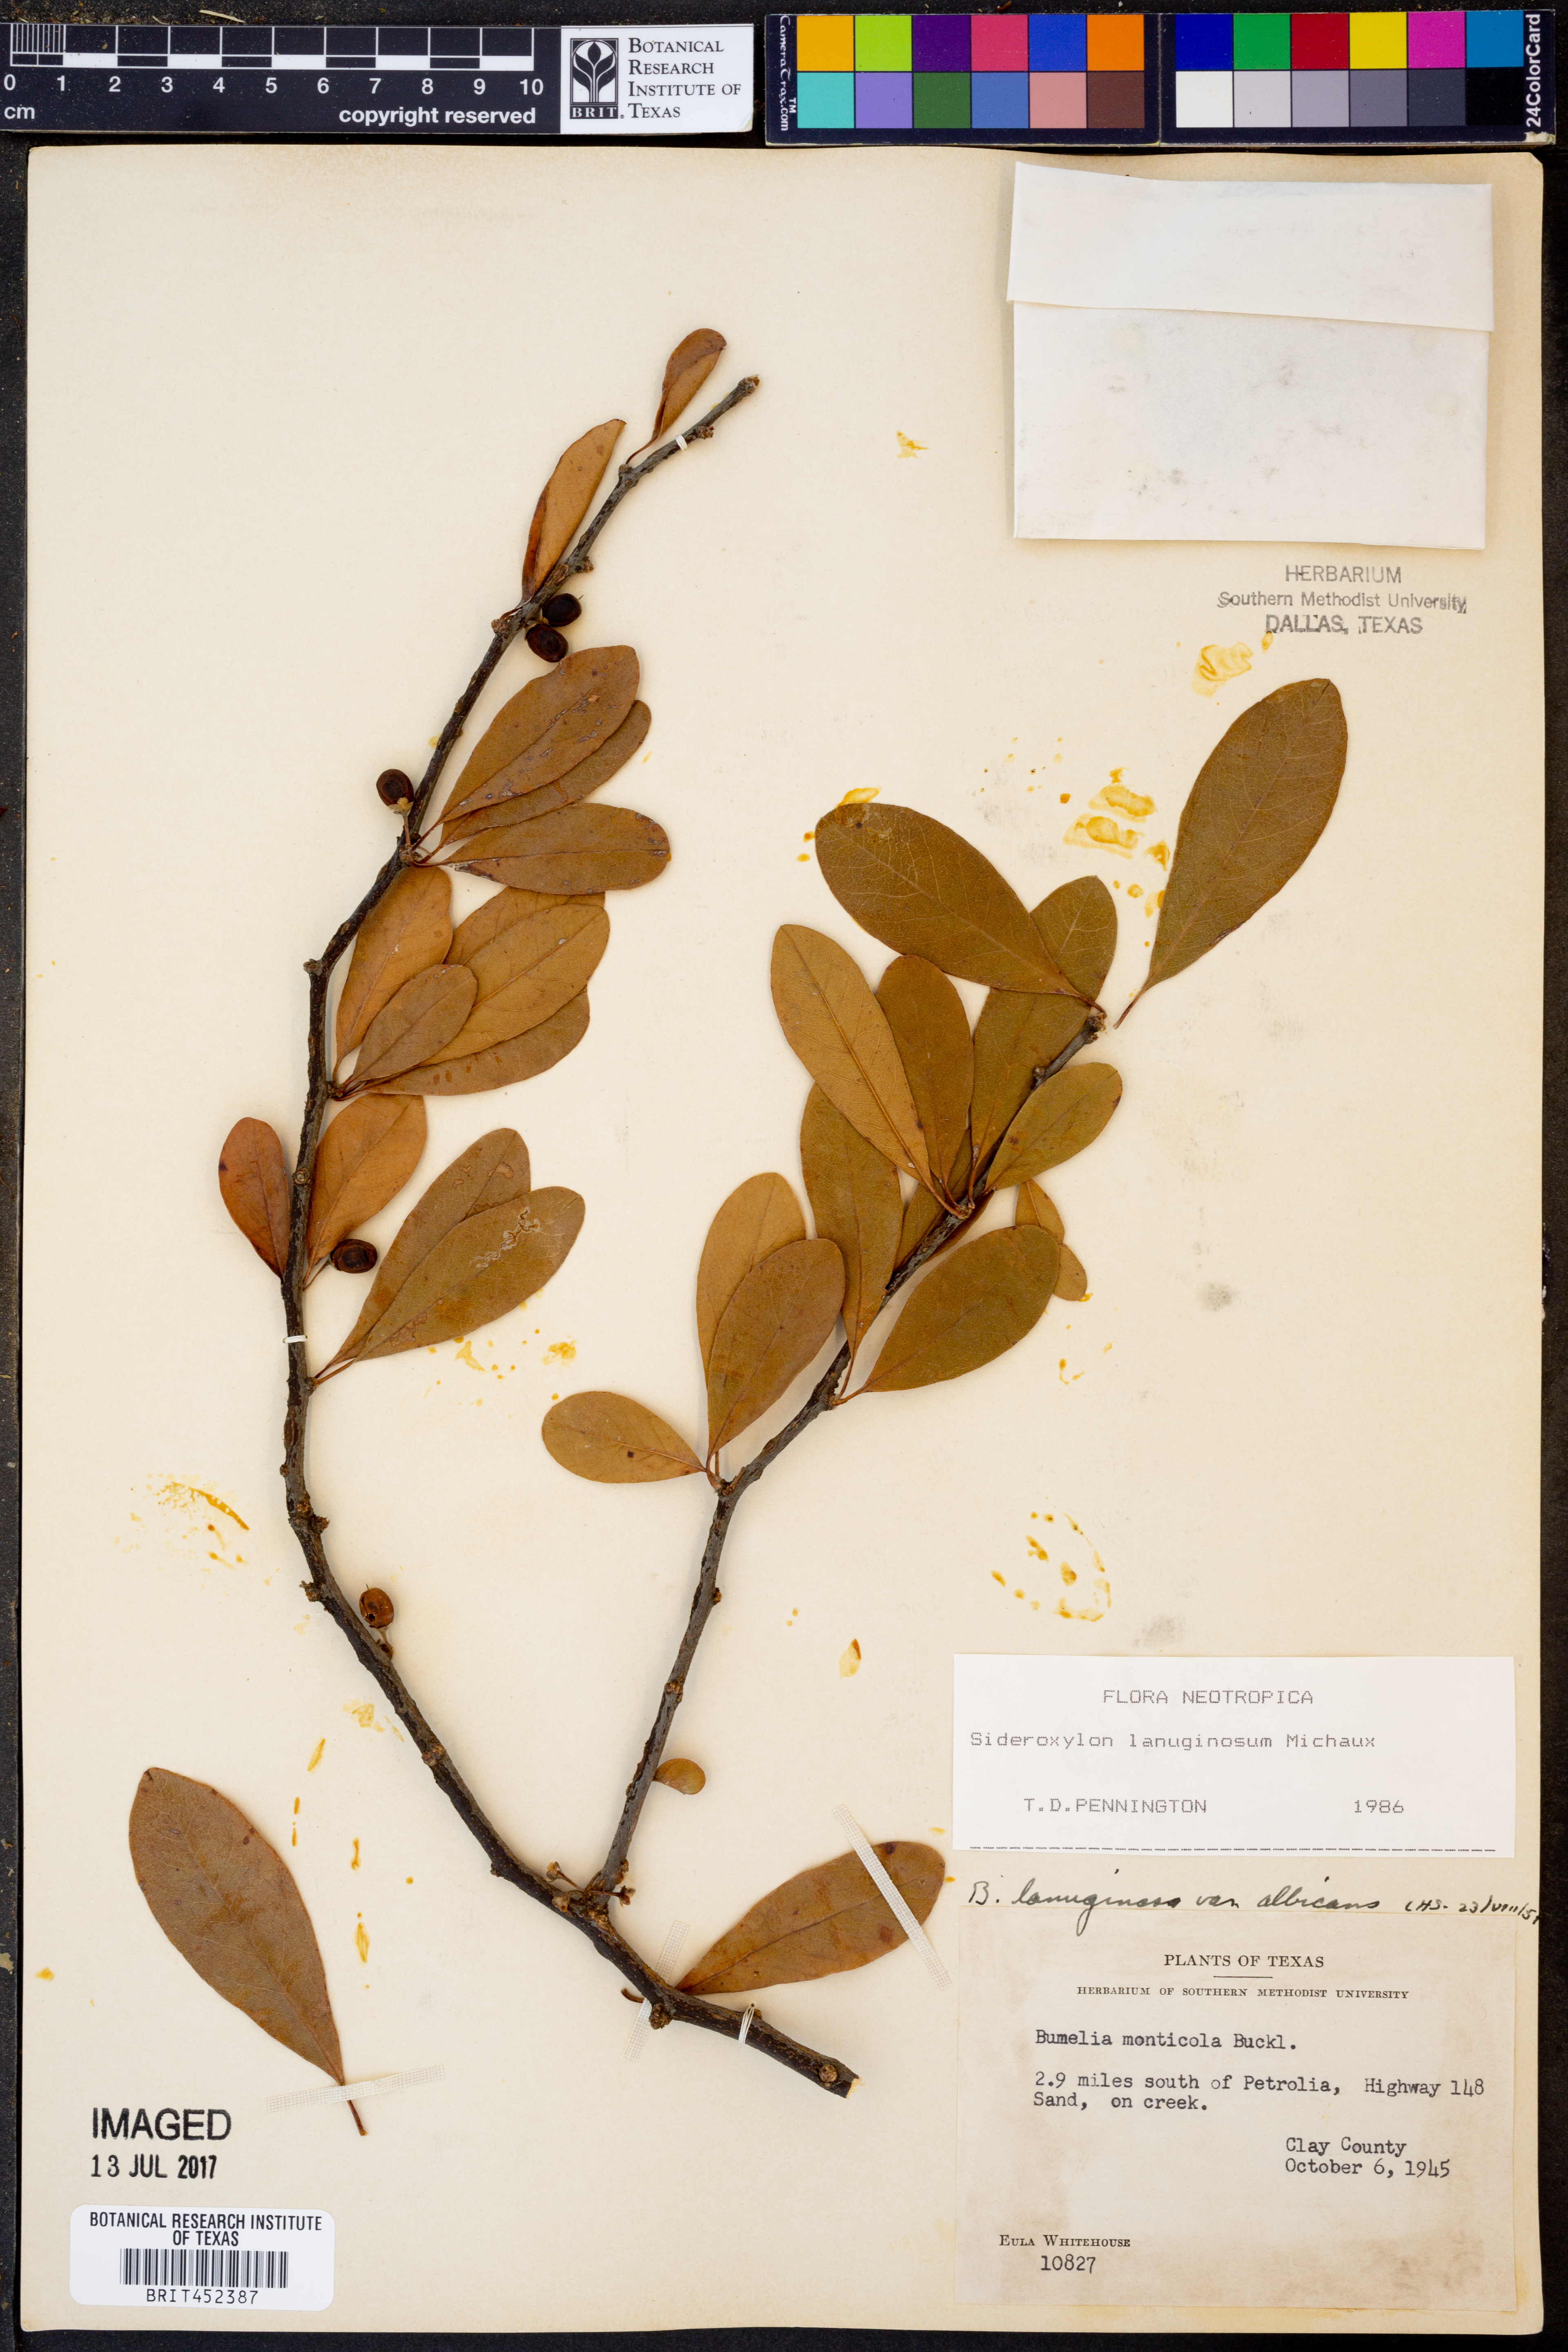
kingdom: Plantae
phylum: Tracheophyta
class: Magnoliopsida
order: Ericales
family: Sapotaceae
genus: Sideroxylon
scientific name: Sideroxylon lanuginosum
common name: Chittamwood
